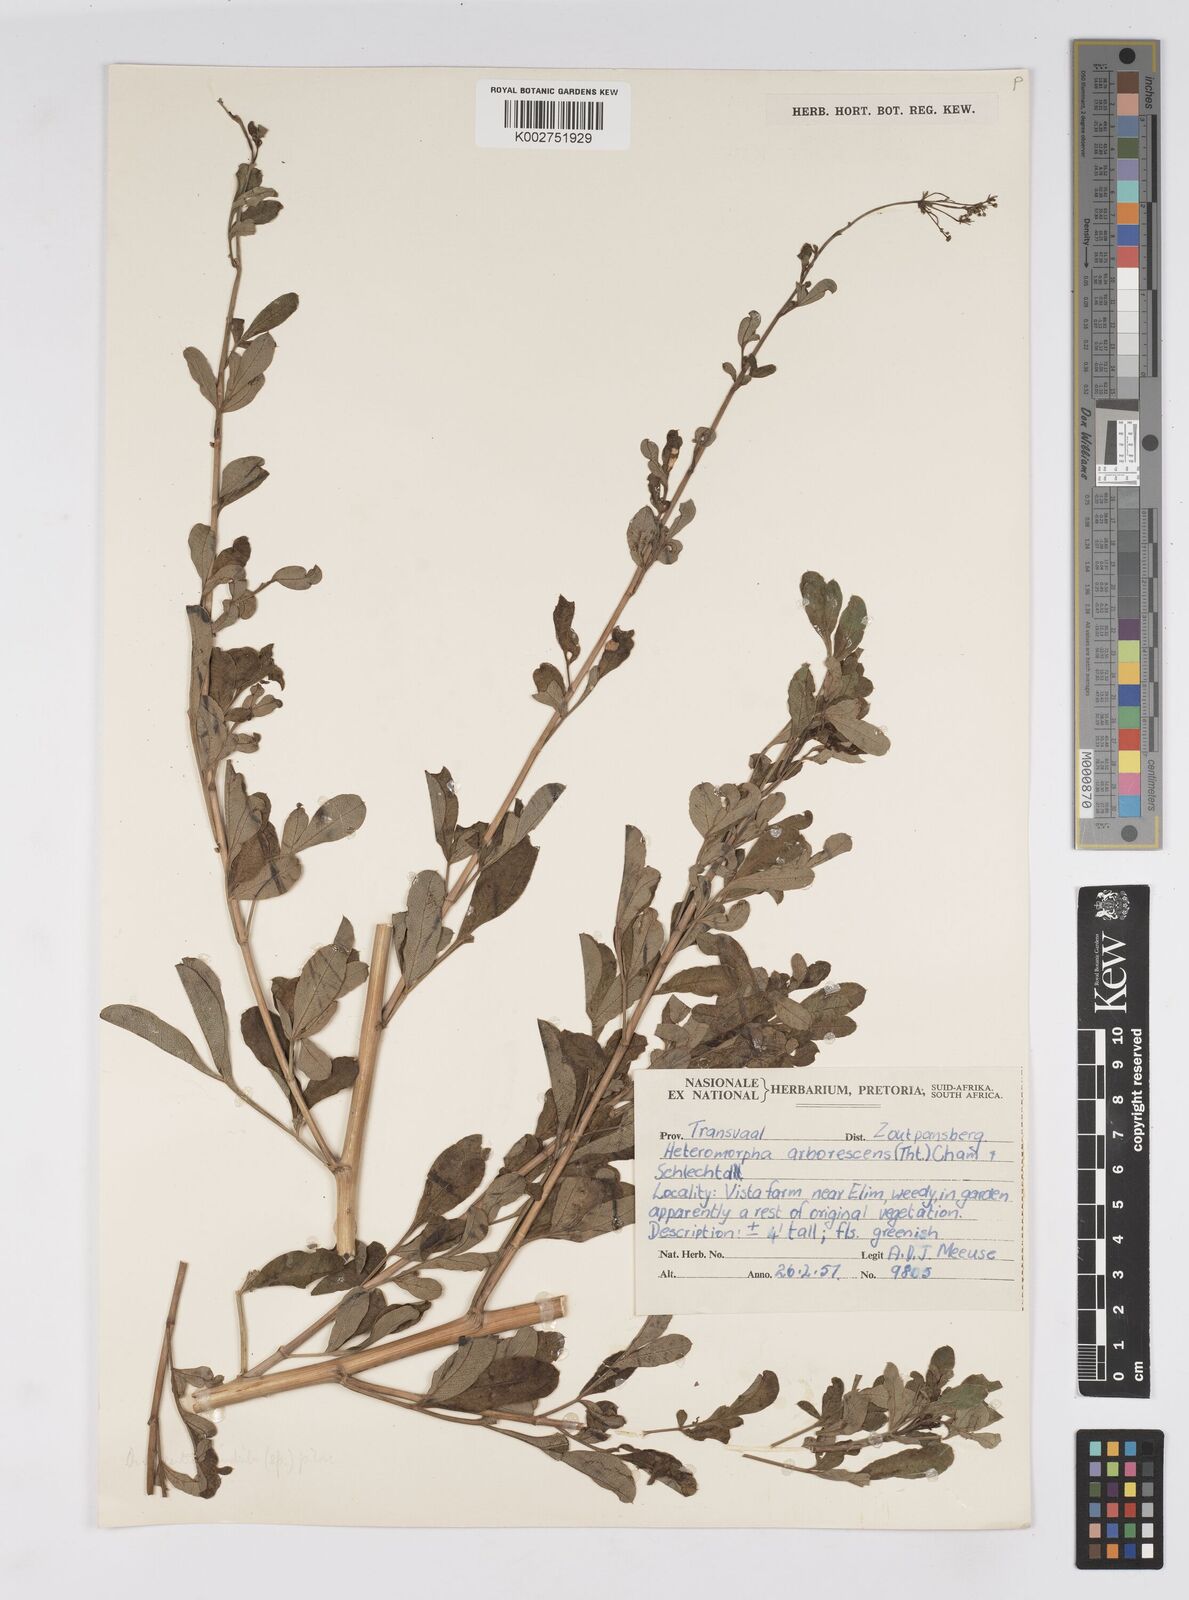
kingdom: Plantae
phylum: Tracheophyta
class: Magnoliopsida
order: Apiales
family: Apiaceae
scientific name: Apiaceae
